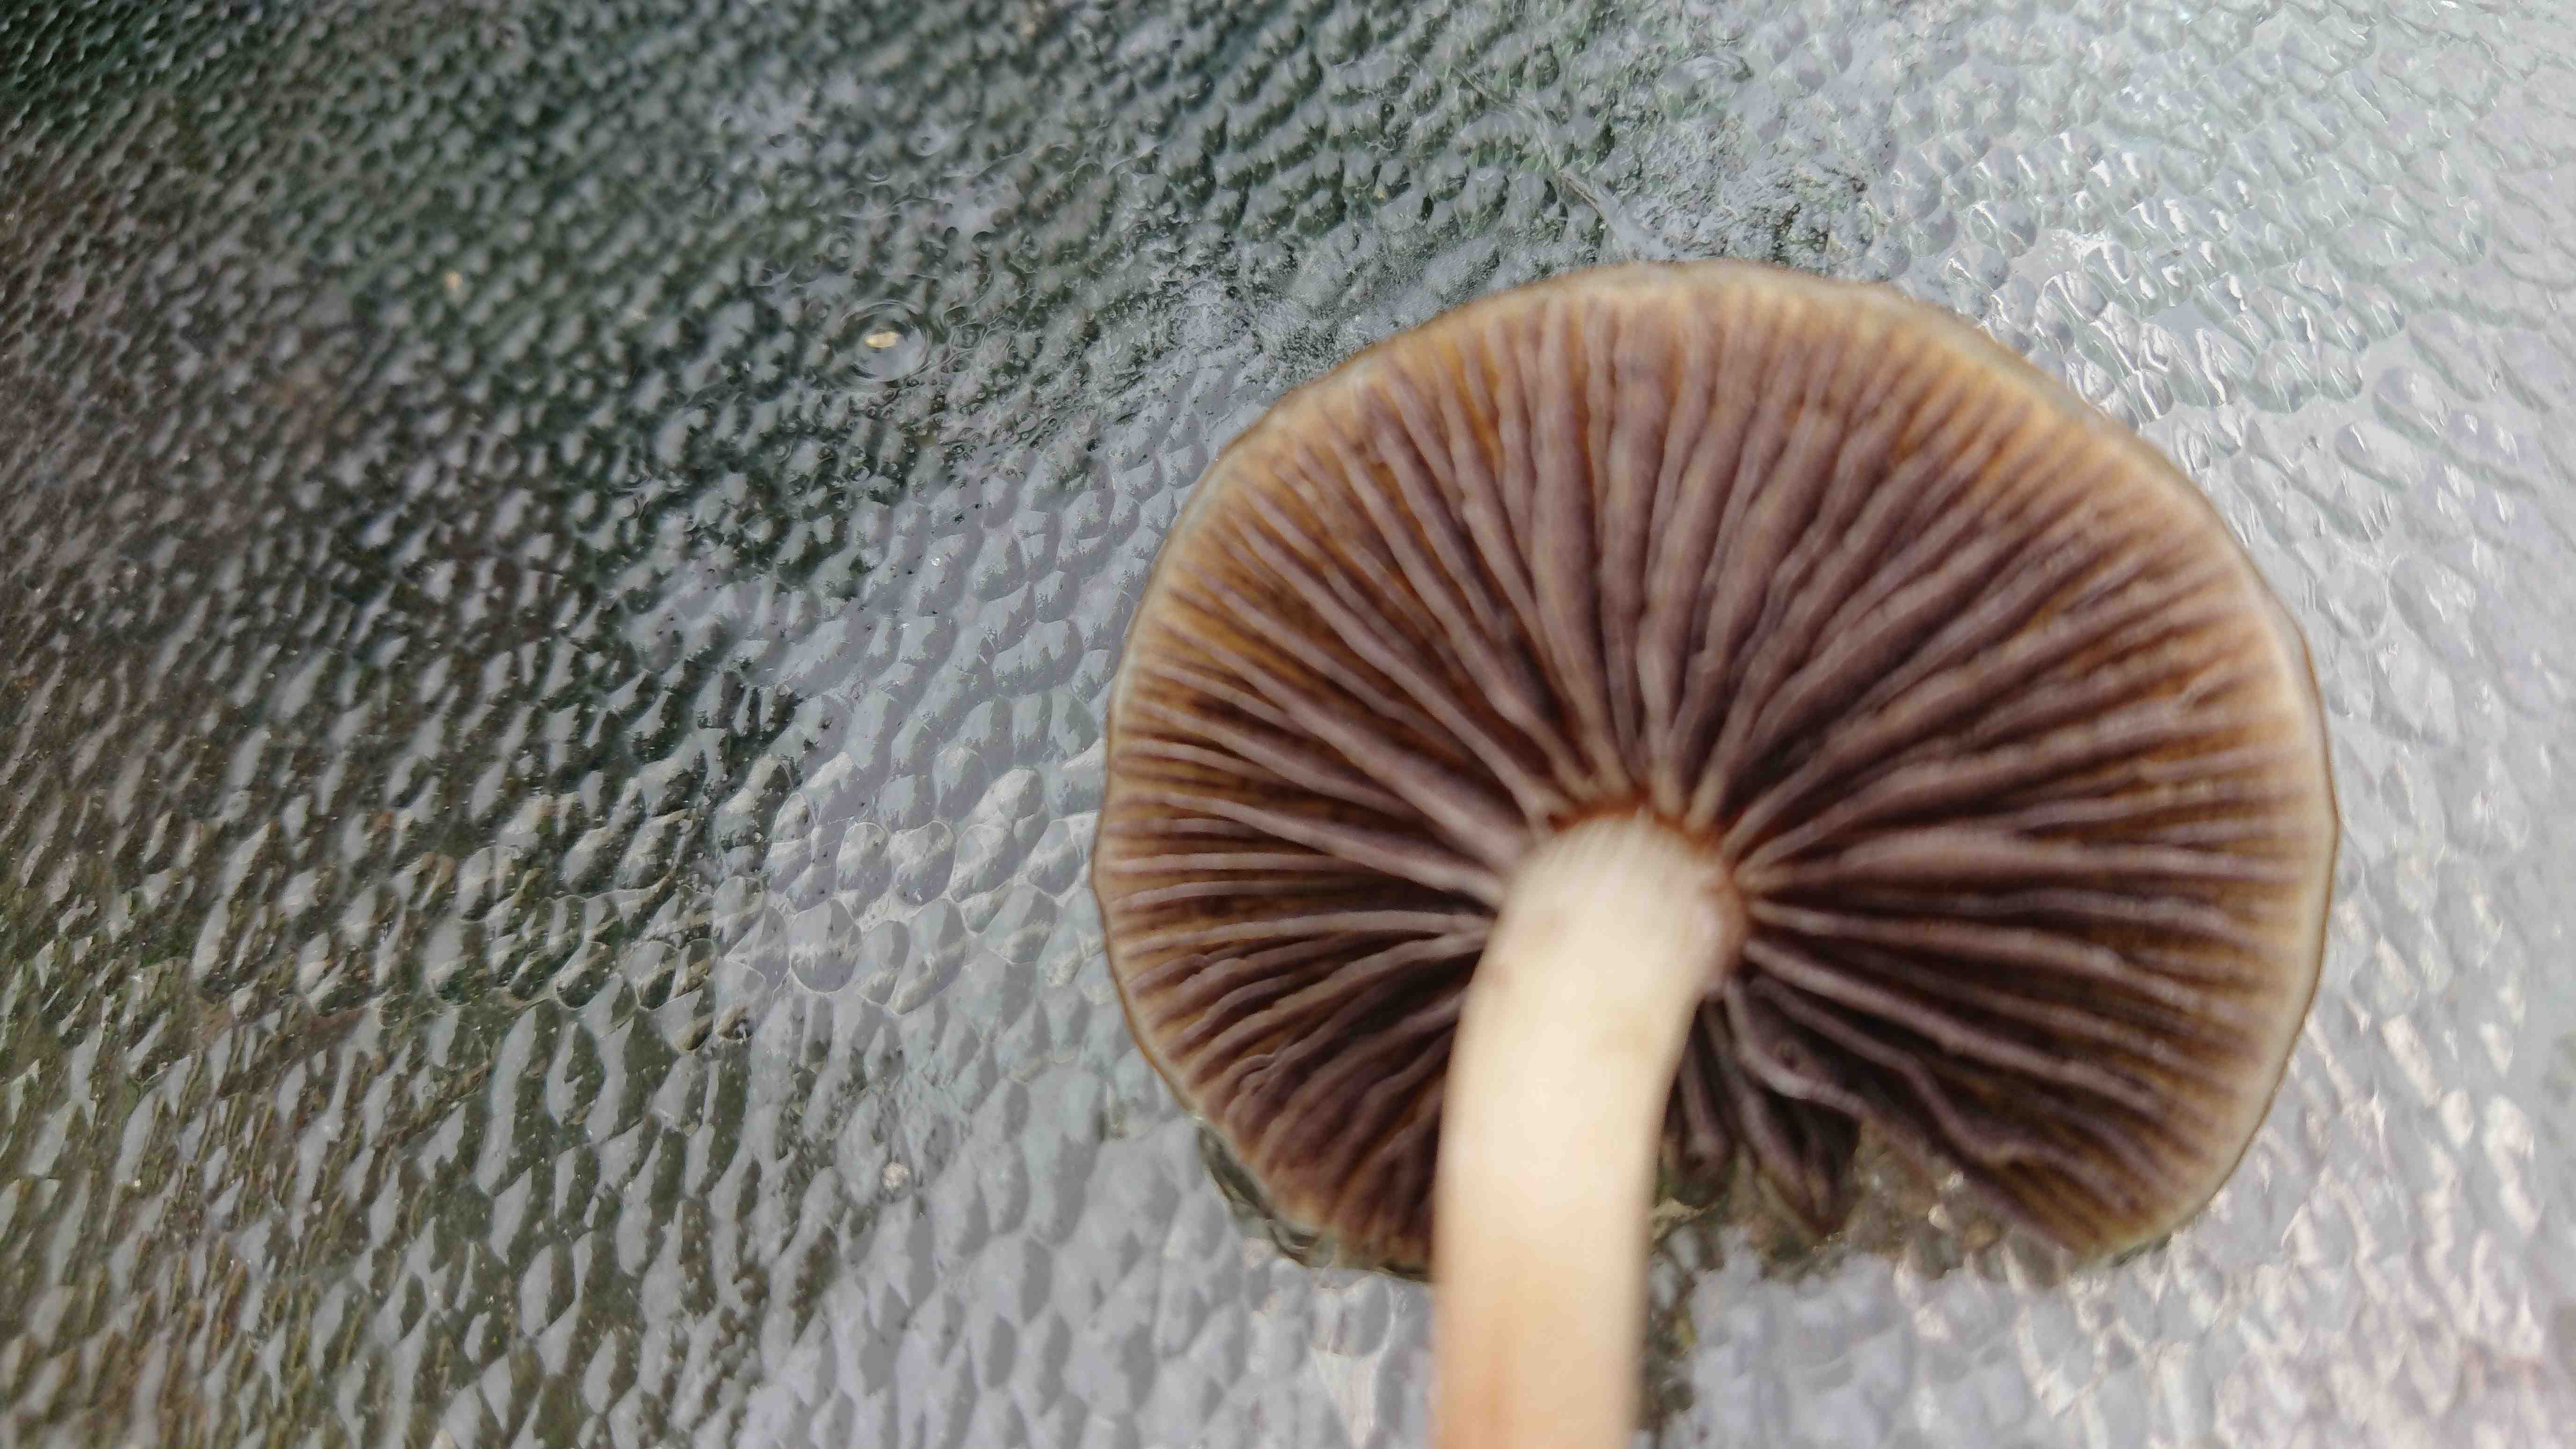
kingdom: Fungi
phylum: Basidiomycota
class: Agaricomycetes
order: Agaricales
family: Strophariaceae
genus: Agrocybe
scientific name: Agrocybe
